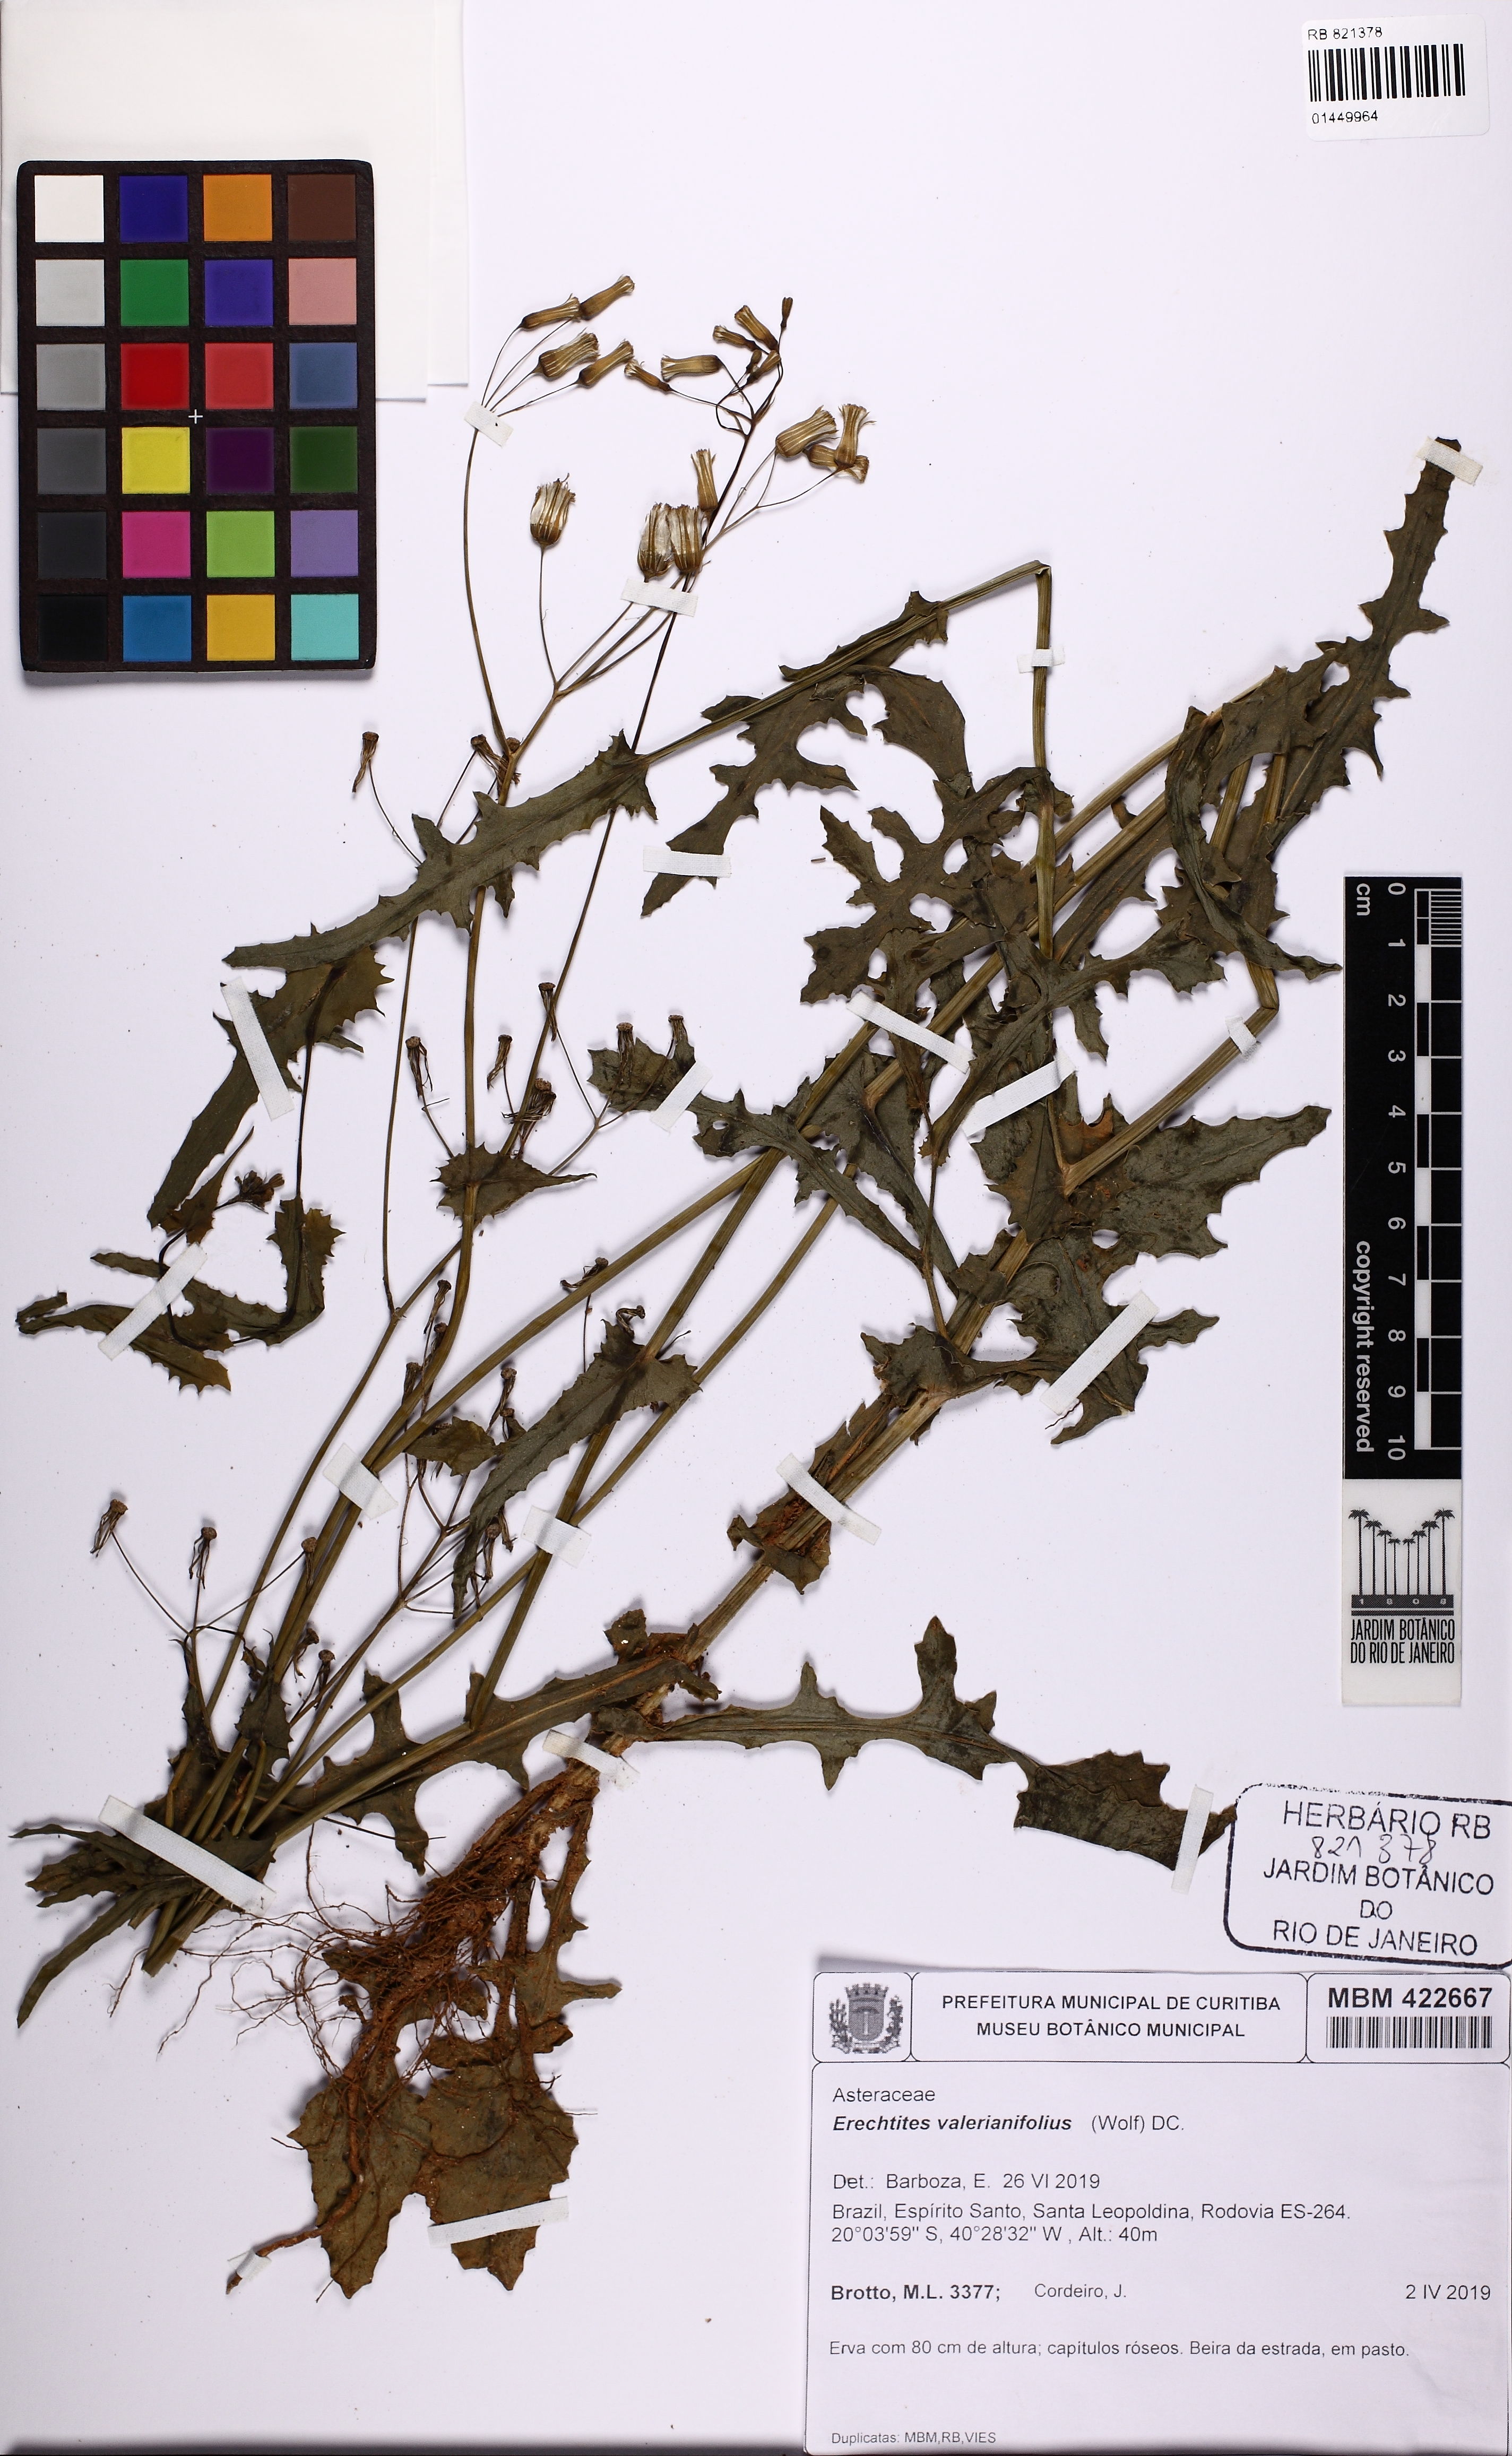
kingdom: Plantae
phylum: Tracheophyta
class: Magnoliopsida
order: Asterales
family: Asteraceae
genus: Erechtites
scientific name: Erechtites valerianifolius
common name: Tropical burnweed
